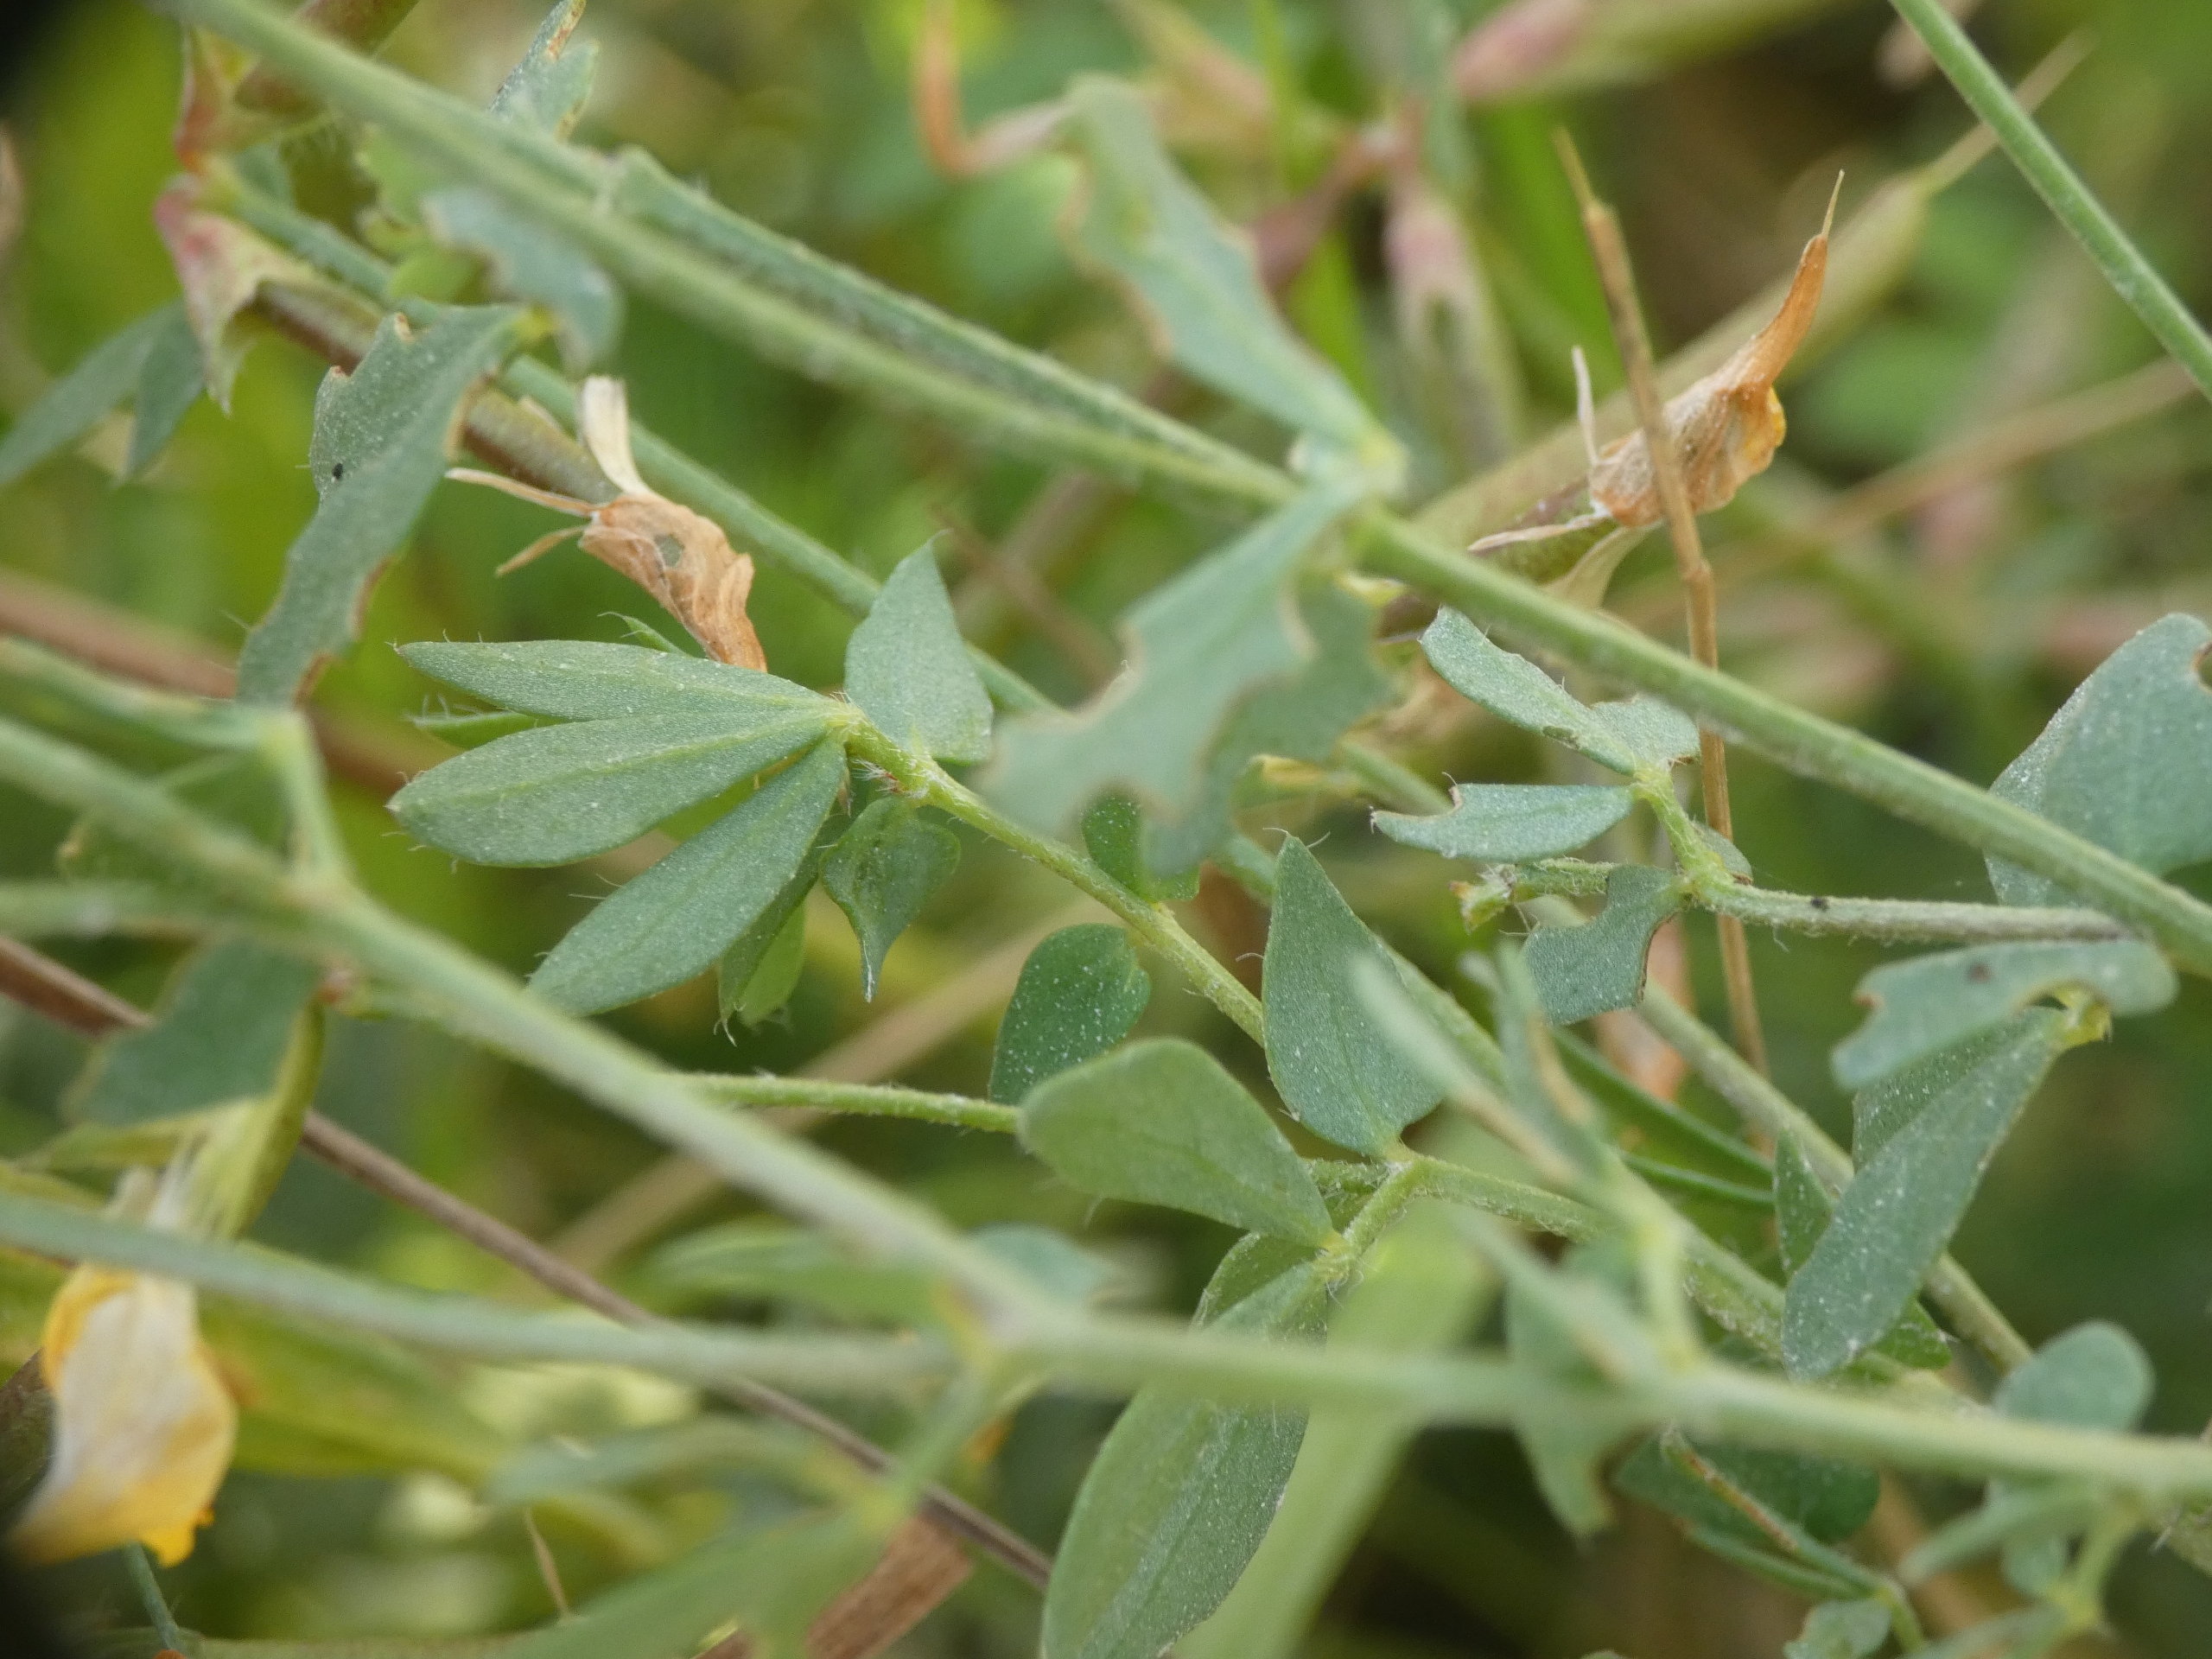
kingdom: Plantae
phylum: Tracheophyta
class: Magnoliopsida
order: Fabales
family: Fabaceae
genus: Lotus
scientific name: Lotus corniculatus
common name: Almindelig kællingetand
